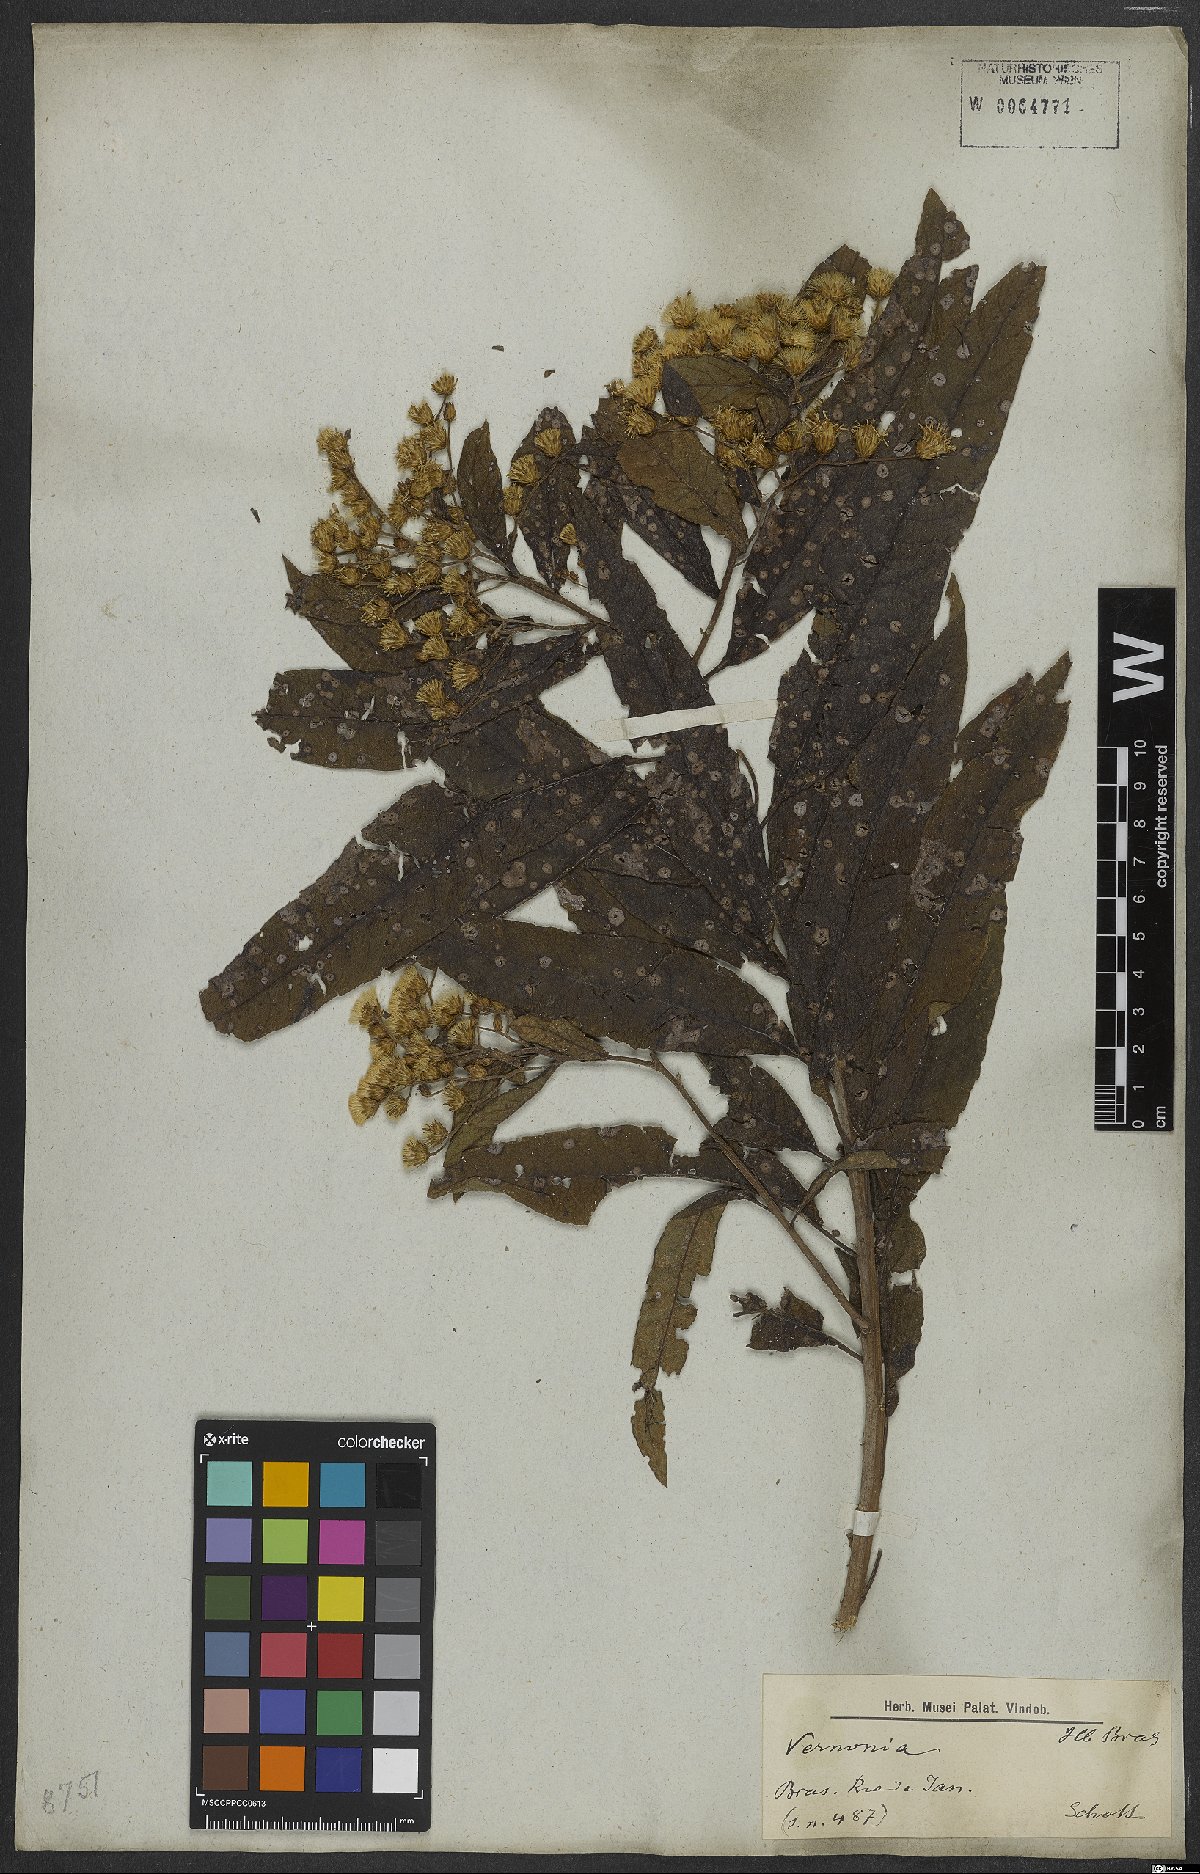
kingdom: Plantae
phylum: Tracheophyta
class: Magnoliopsida
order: Asterales
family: Asteraceae
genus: Vernonia
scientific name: Vernonia
